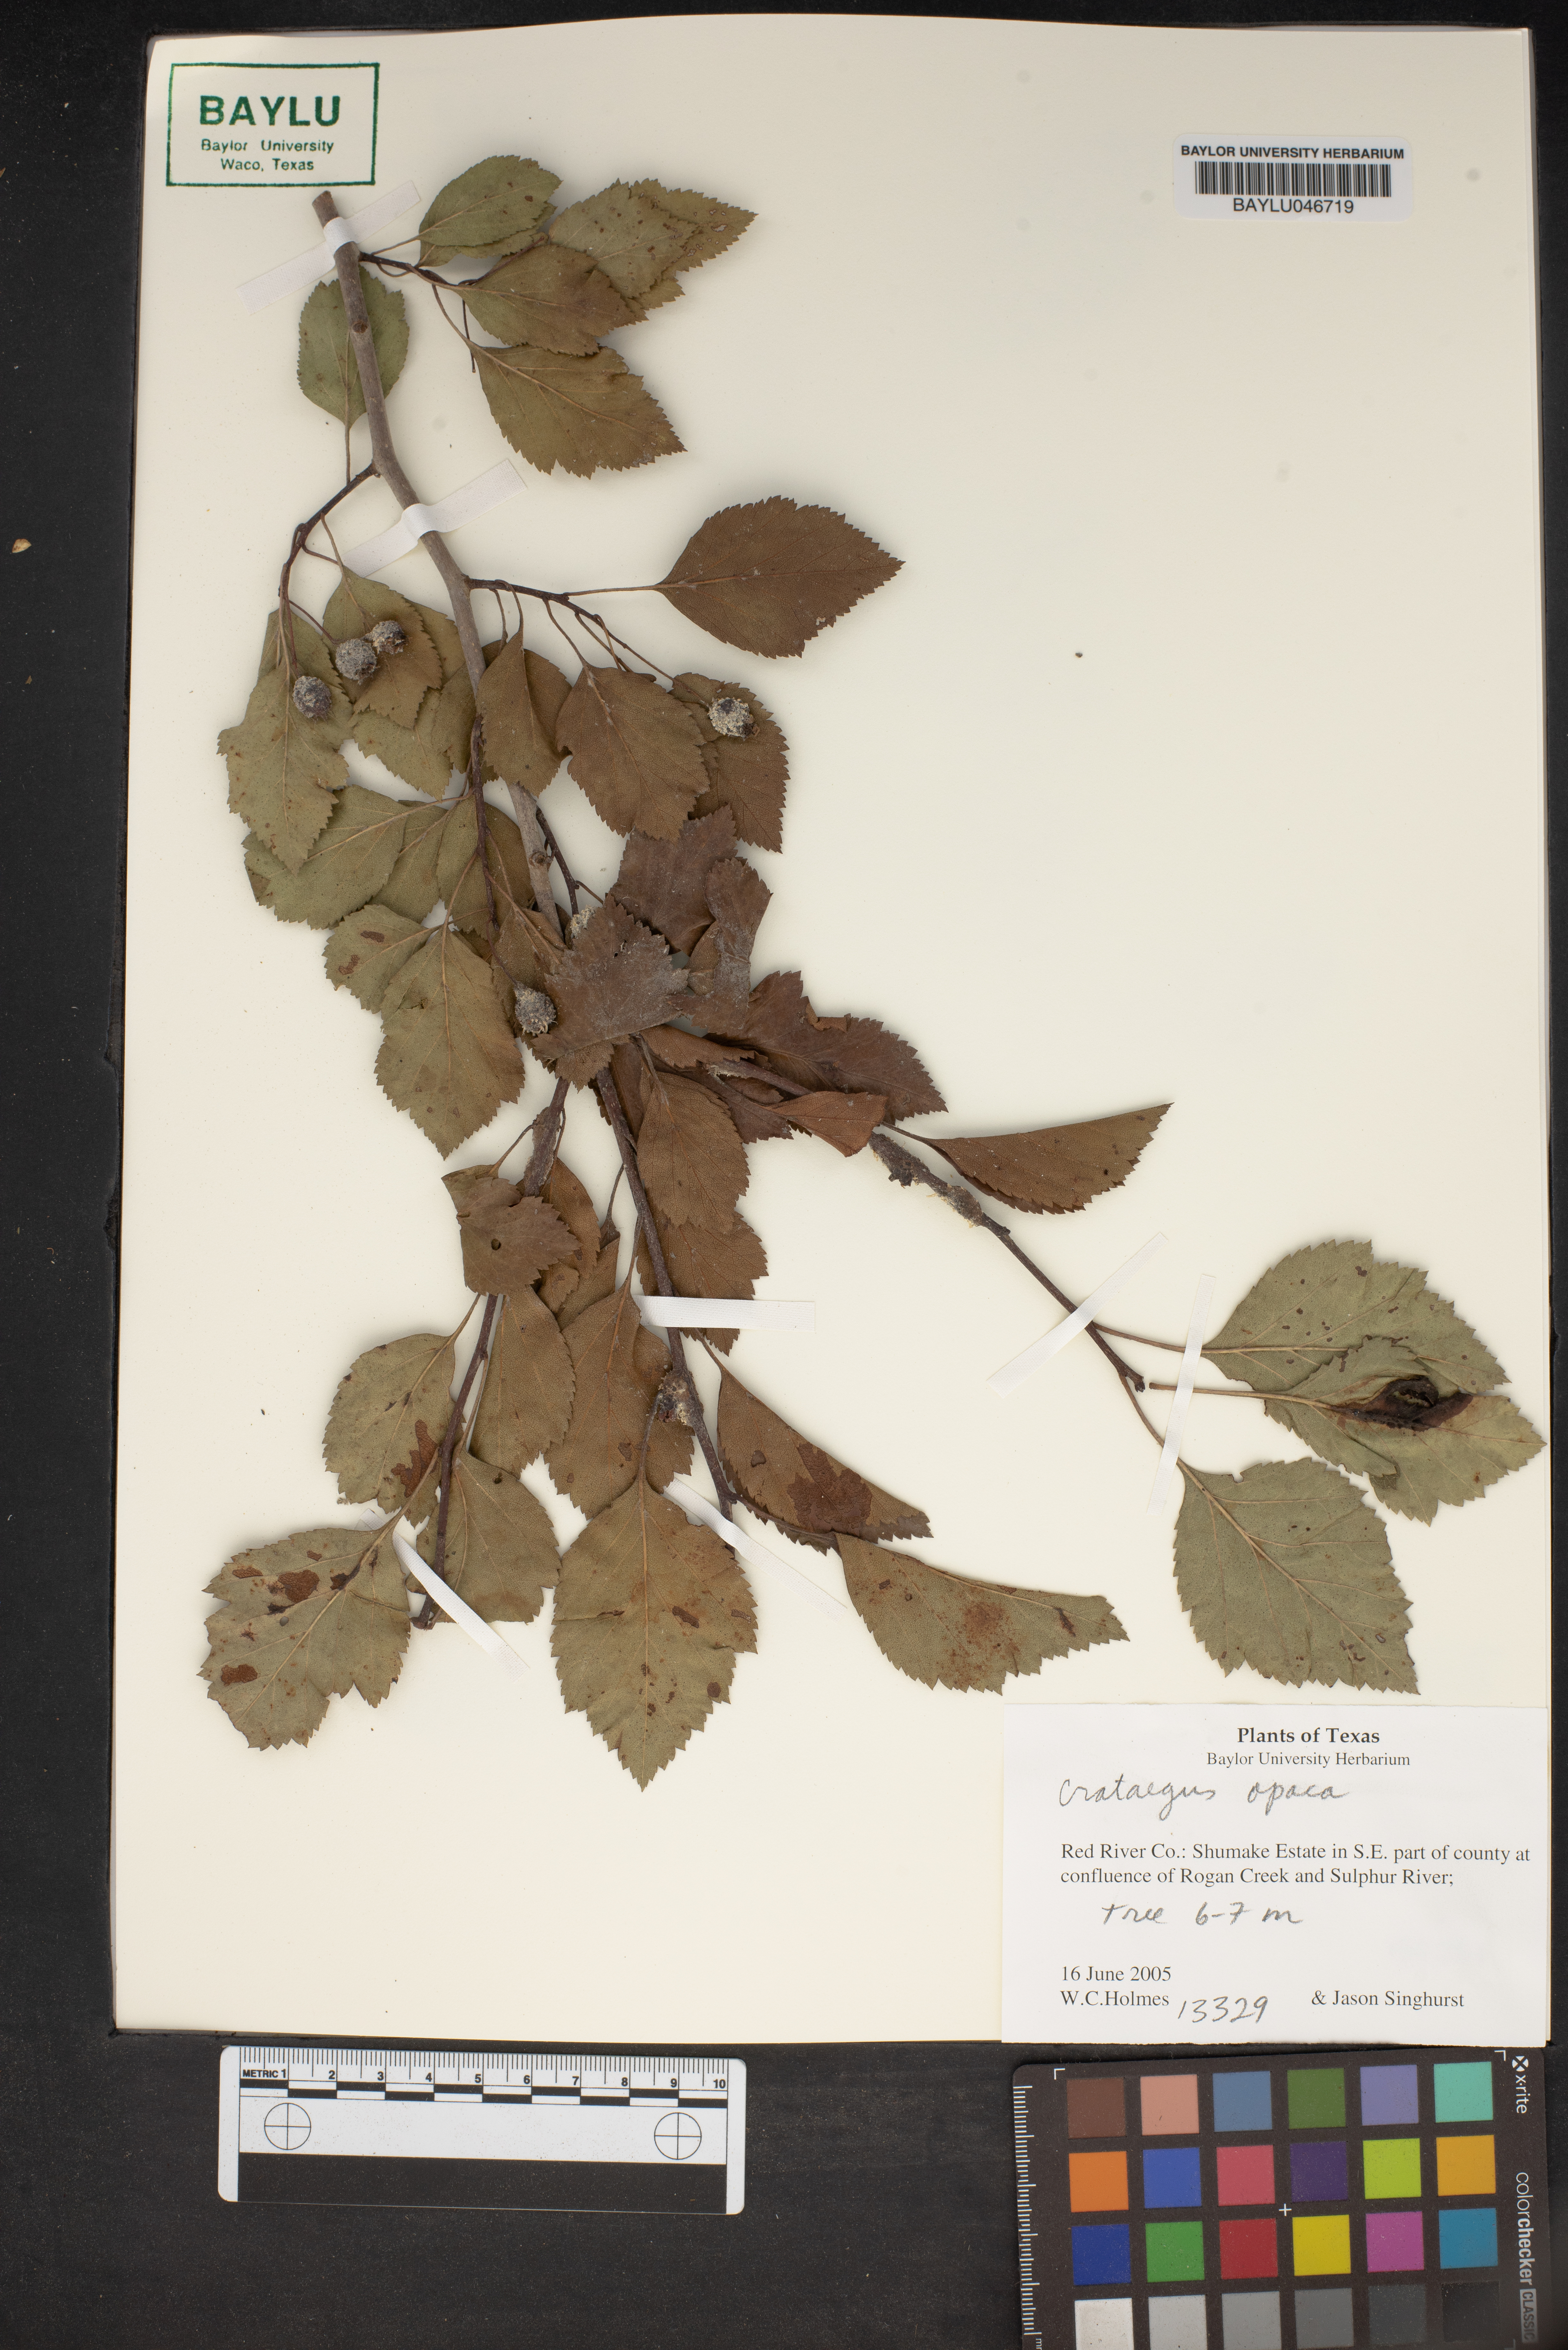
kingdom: Plantae
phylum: Tracheophyta
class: Magnoliopsida
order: Rosales
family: Rosaceae
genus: Crataegus
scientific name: Crataegus opaca
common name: Apple haw
